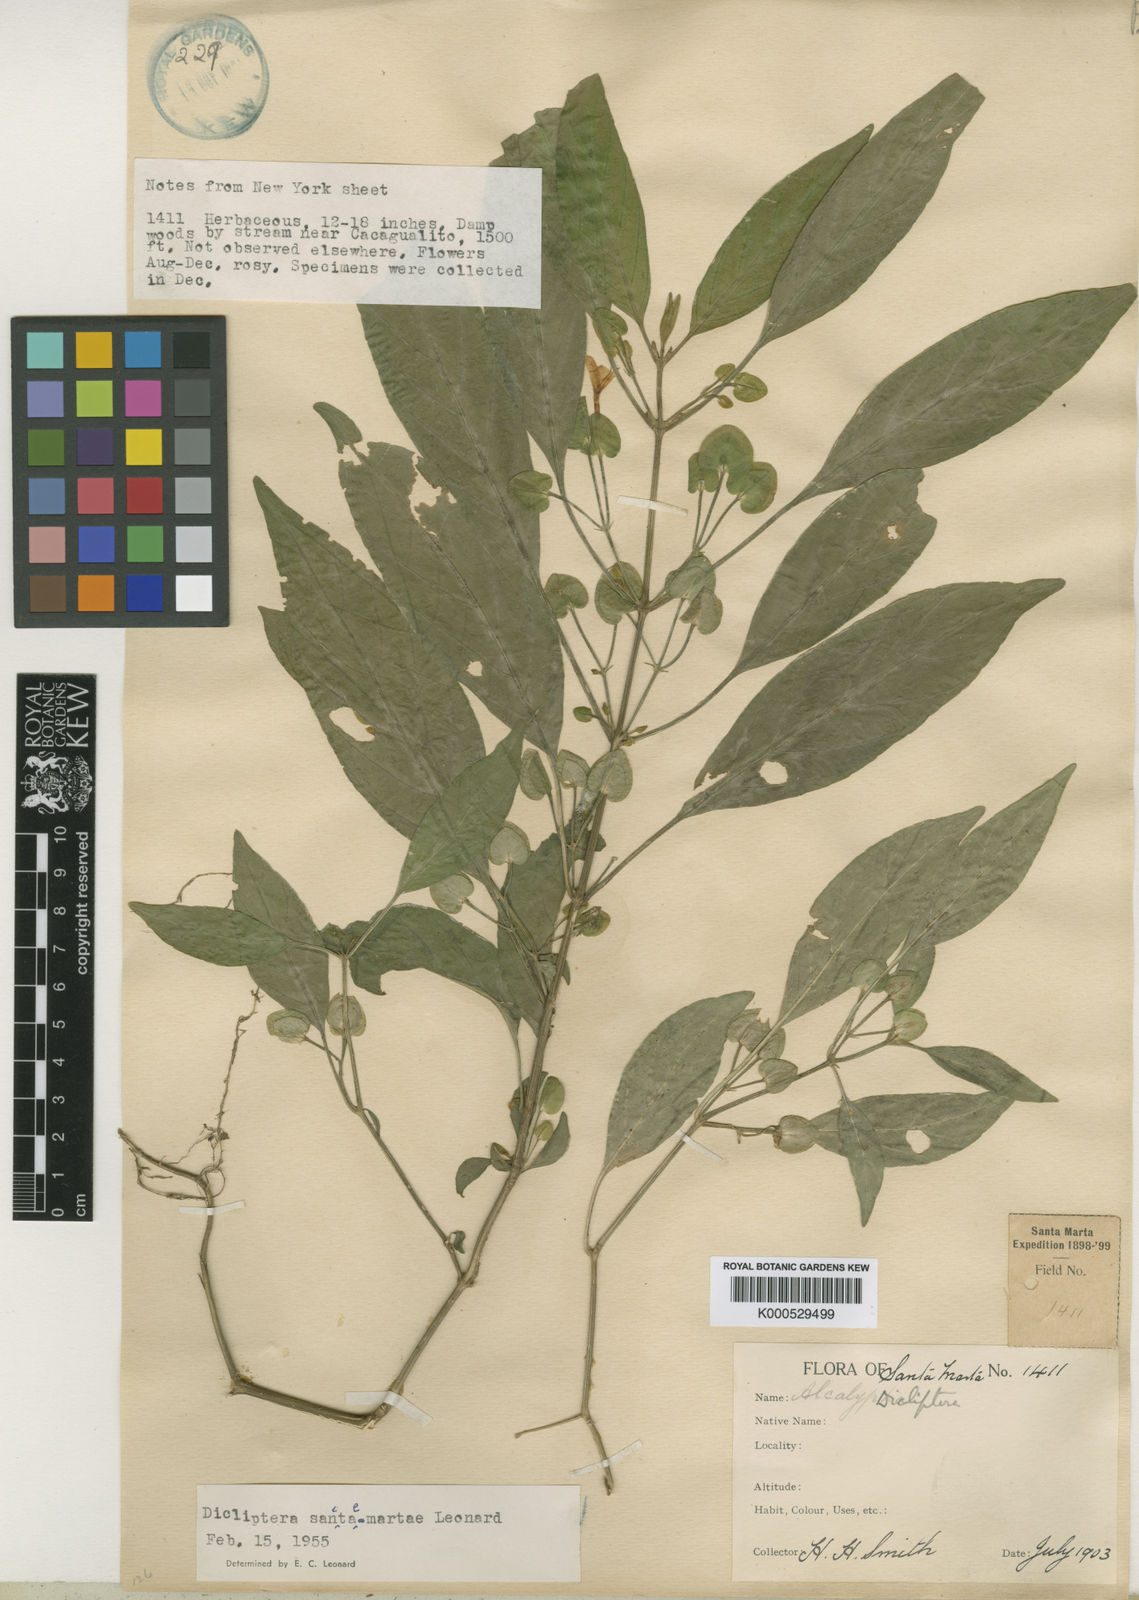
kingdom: Plantae
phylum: Tracheophyta
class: Magnoliopsida
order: Lamiales
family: Acanthaceae
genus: Dicliptera
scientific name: Dicliptera sanctae-martae
